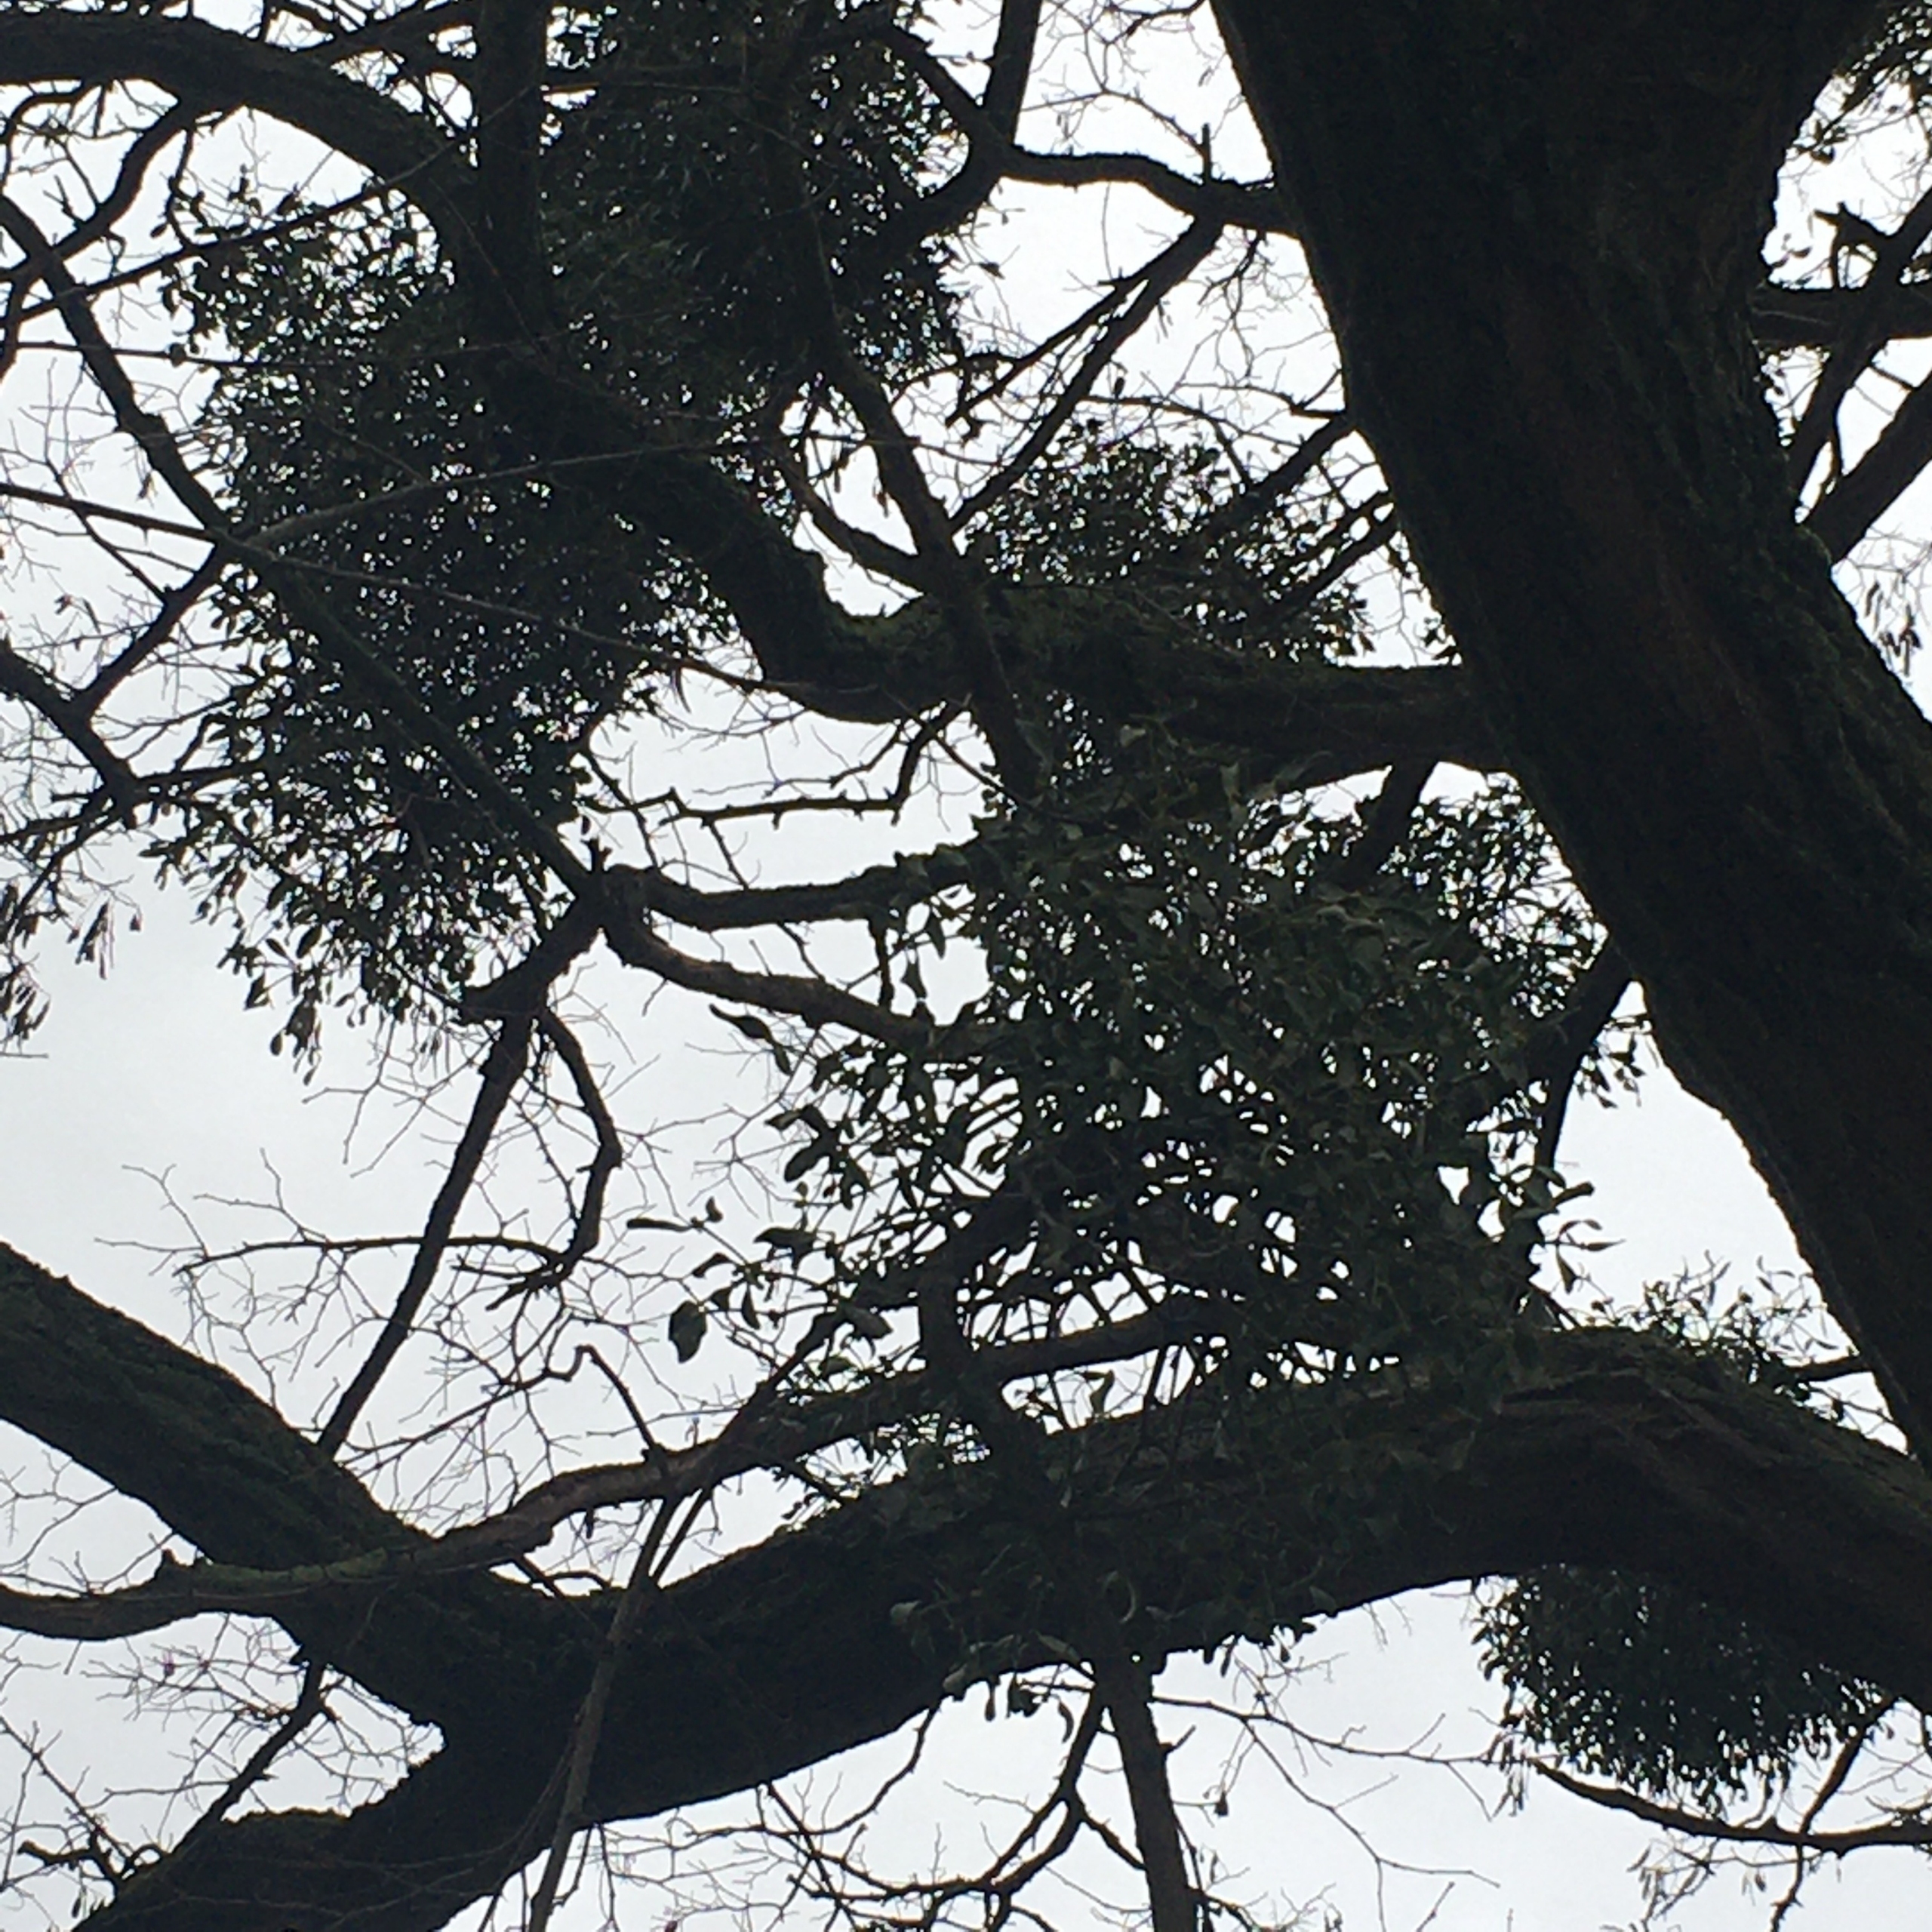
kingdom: Plantae
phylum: Tracheophyta
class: Magnoliopsida
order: Santalales
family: Viscaceae
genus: Viscum
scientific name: Viscum album
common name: Mistelten
